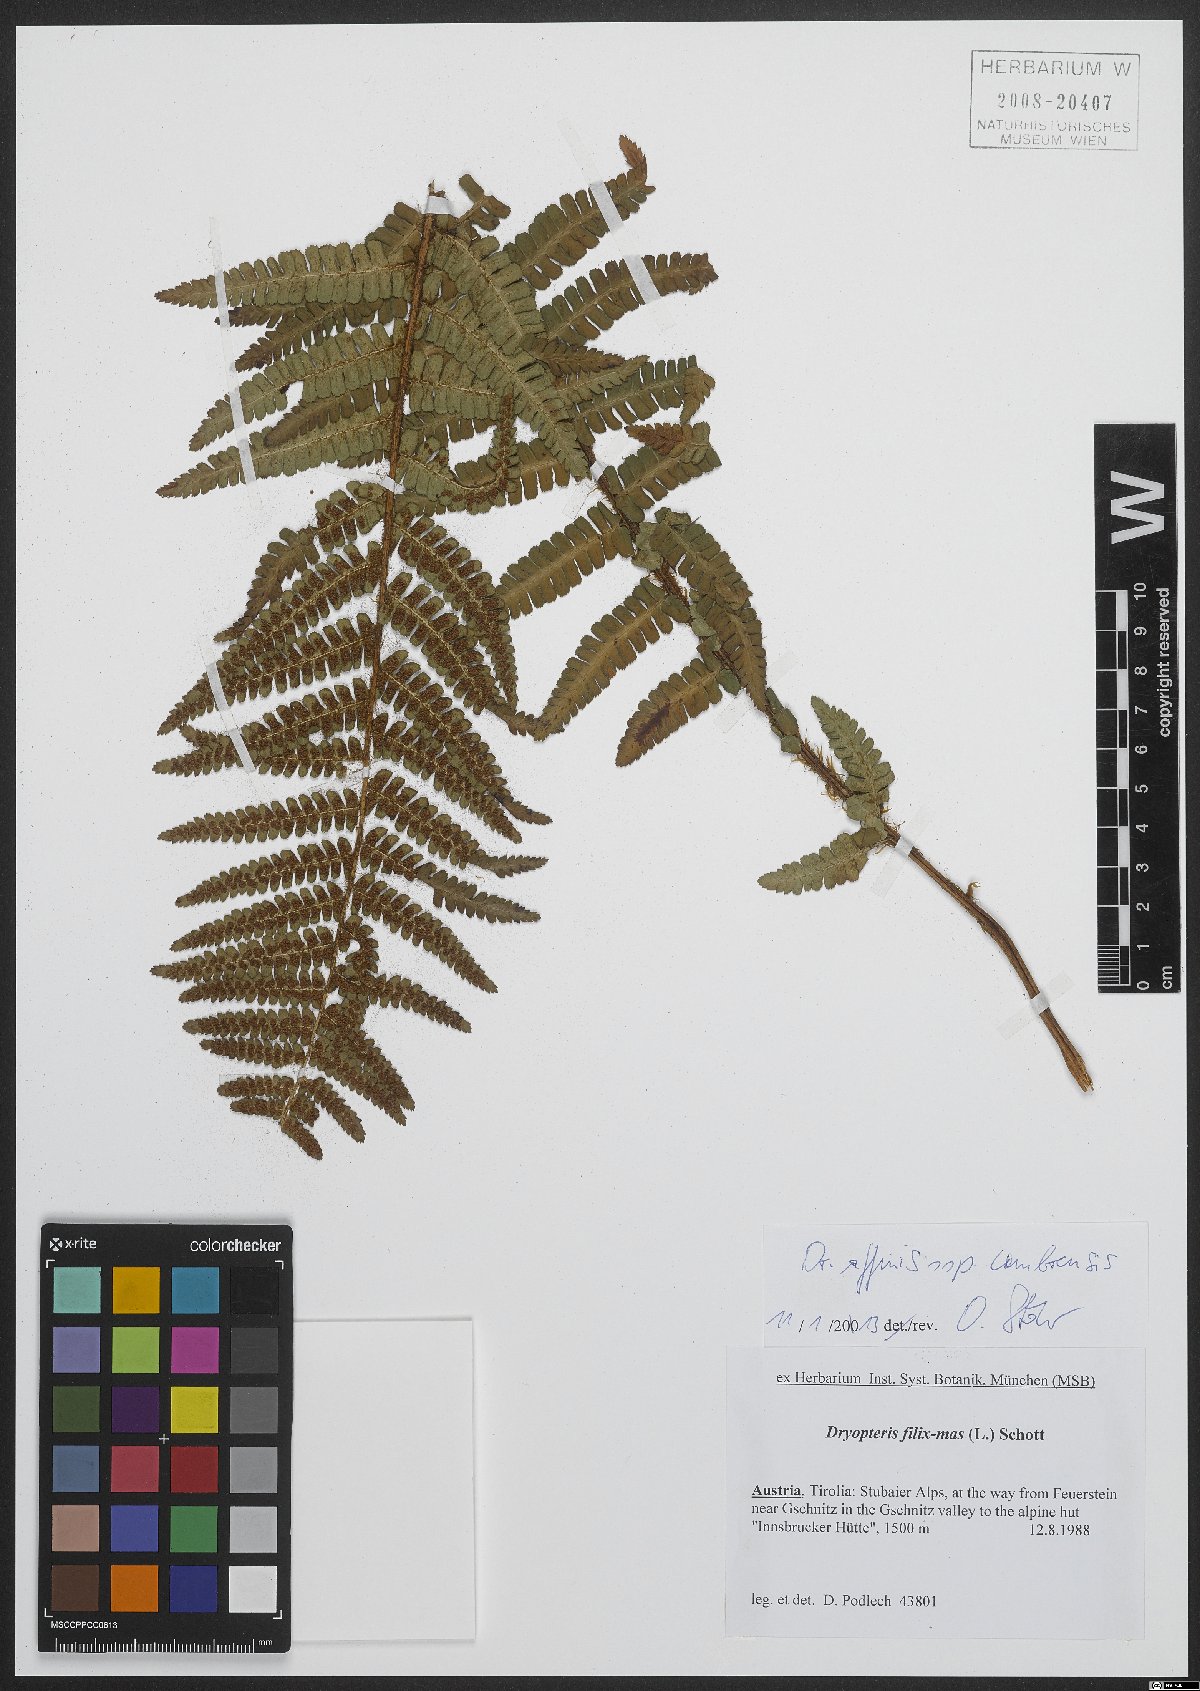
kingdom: Plantae
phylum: Tracheophyta
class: Polypodiopsida
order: Polypodiales
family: Dryopteridaceae
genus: Dryopteris
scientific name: Dryopteris cambrensis
